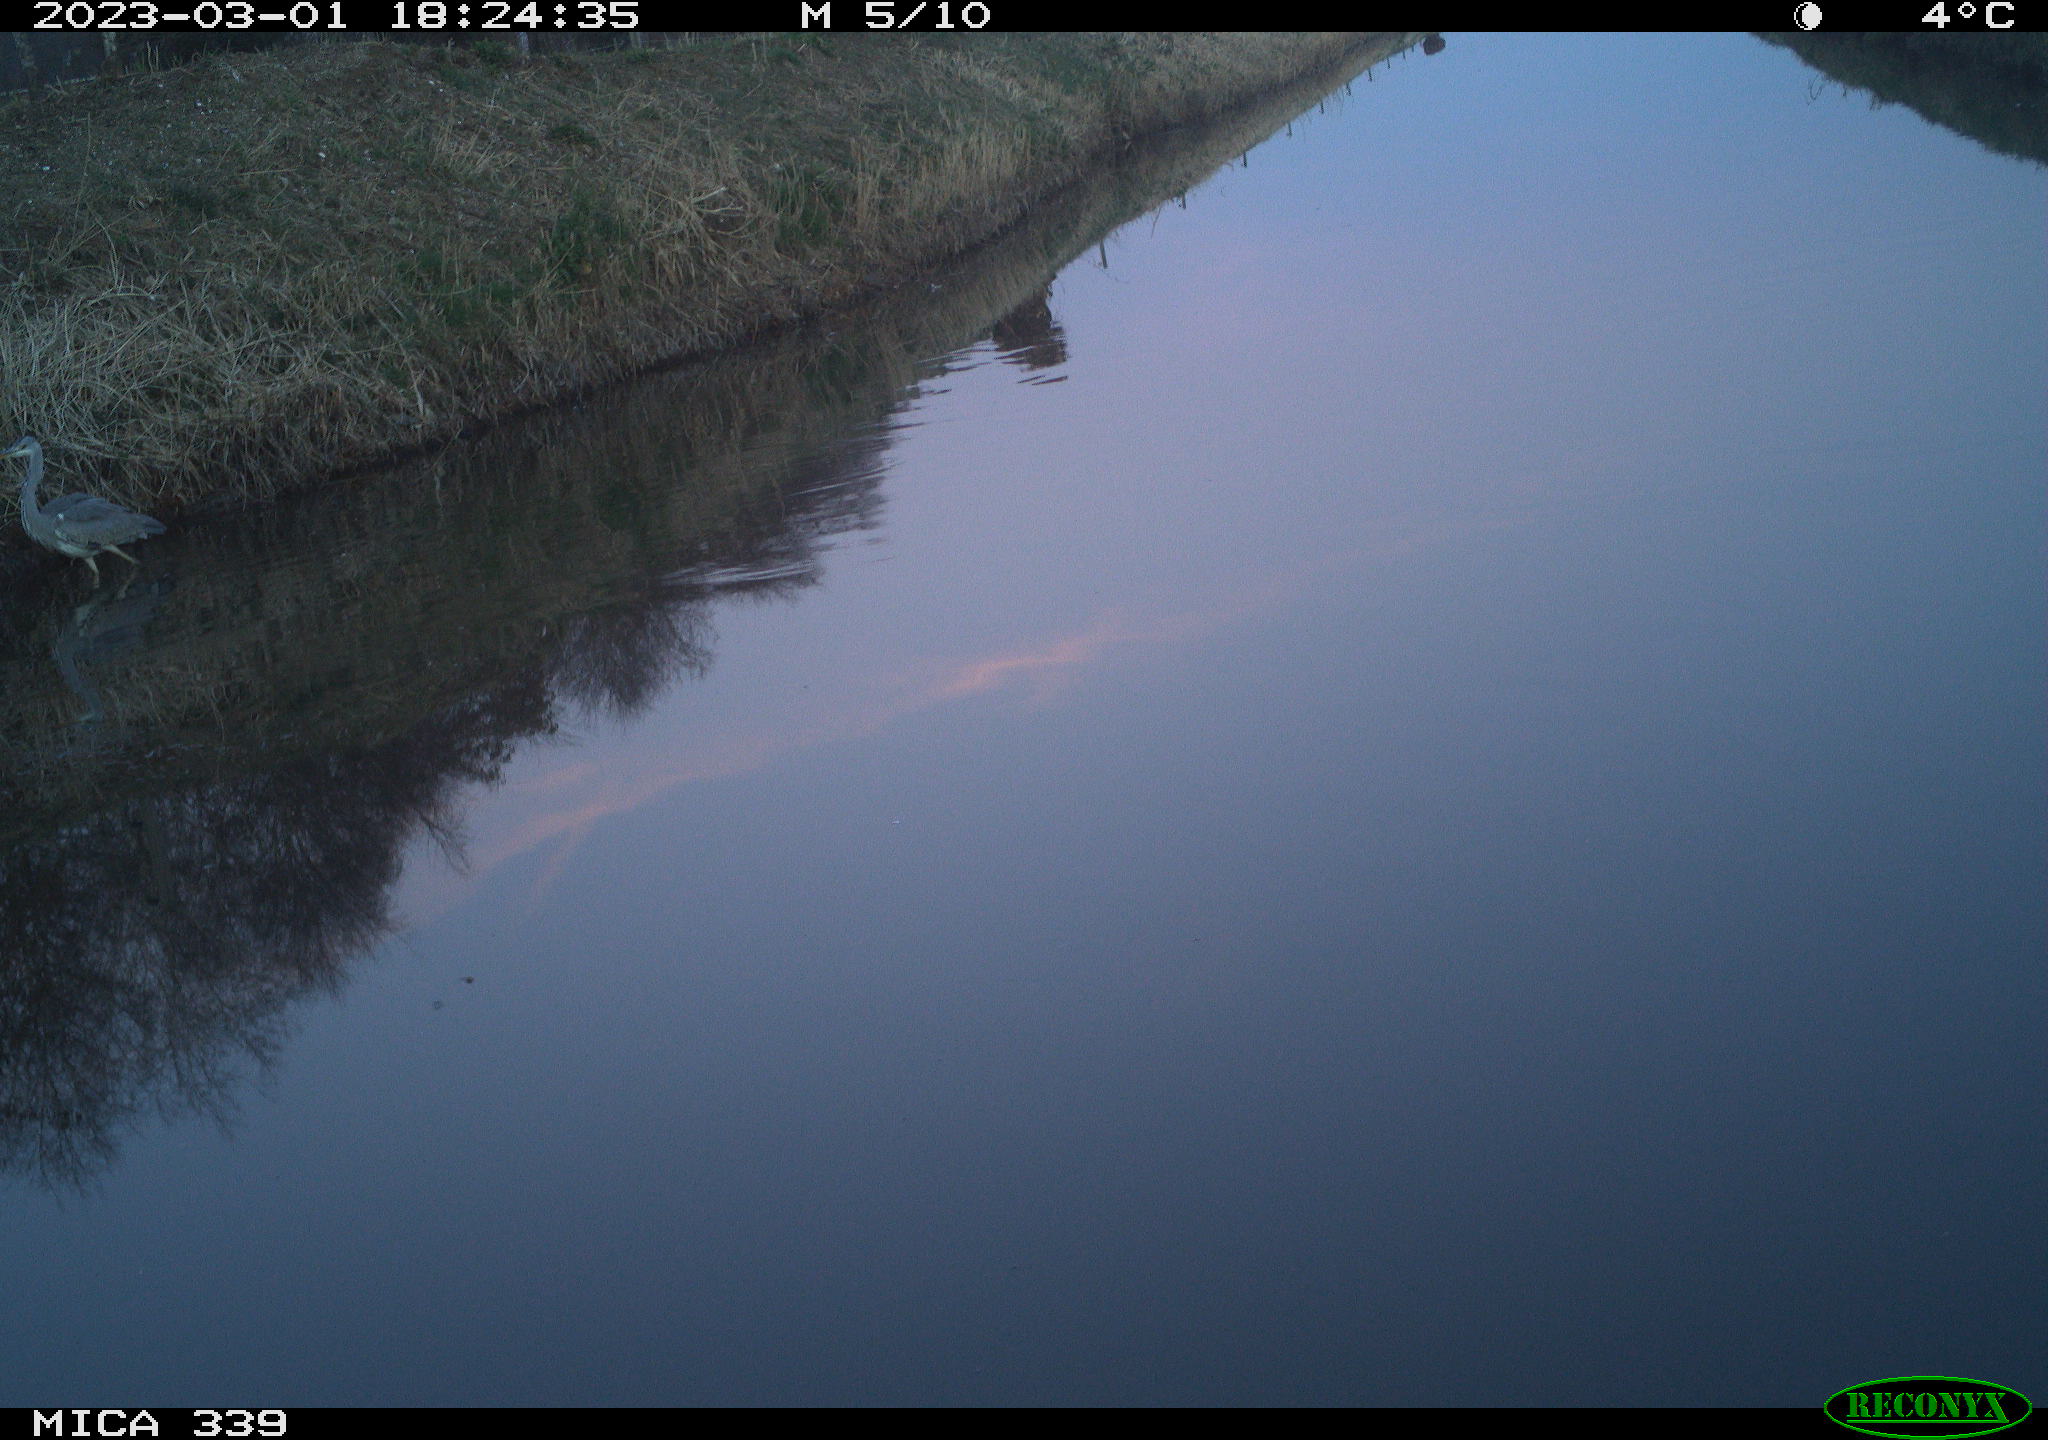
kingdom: Animalia
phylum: Chordata
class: Aves
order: Pelecaniformes
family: Ardeidae
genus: Ardea
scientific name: Ardea cinerea
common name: Grey heron
